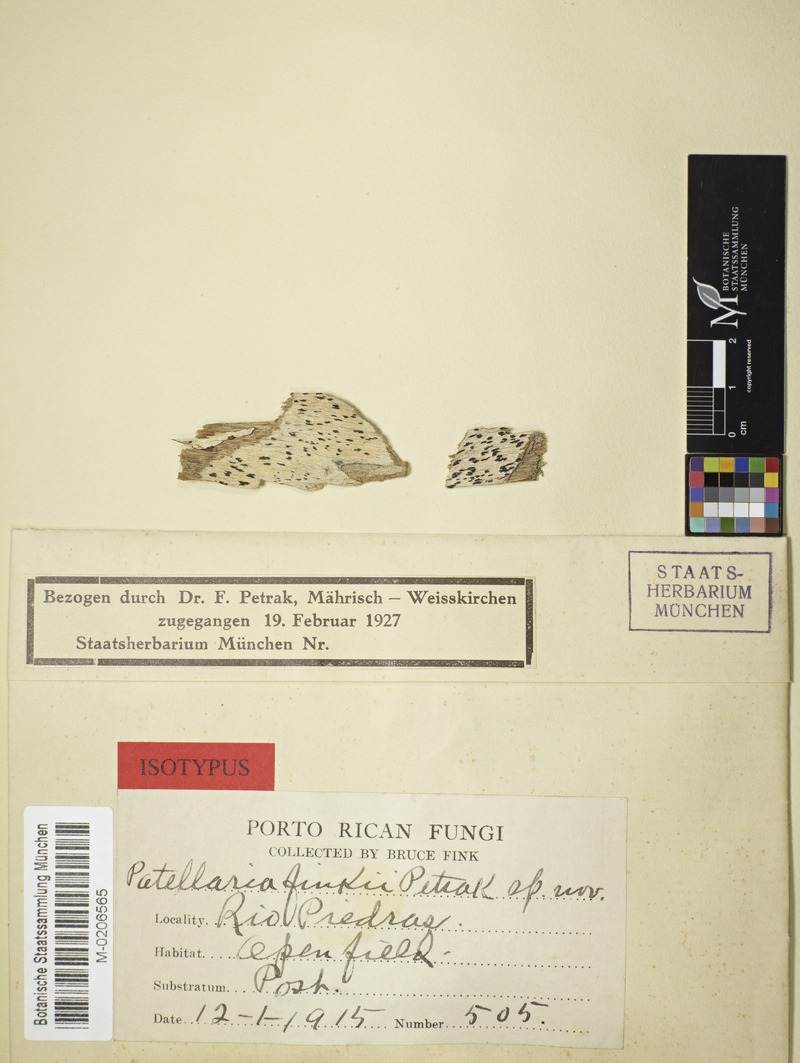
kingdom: Fungi
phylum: Ascomycota
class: Dothideomycetes
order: Patellariales
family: Patellariaceae
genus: Patellaria
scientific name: Patellaria finkii
